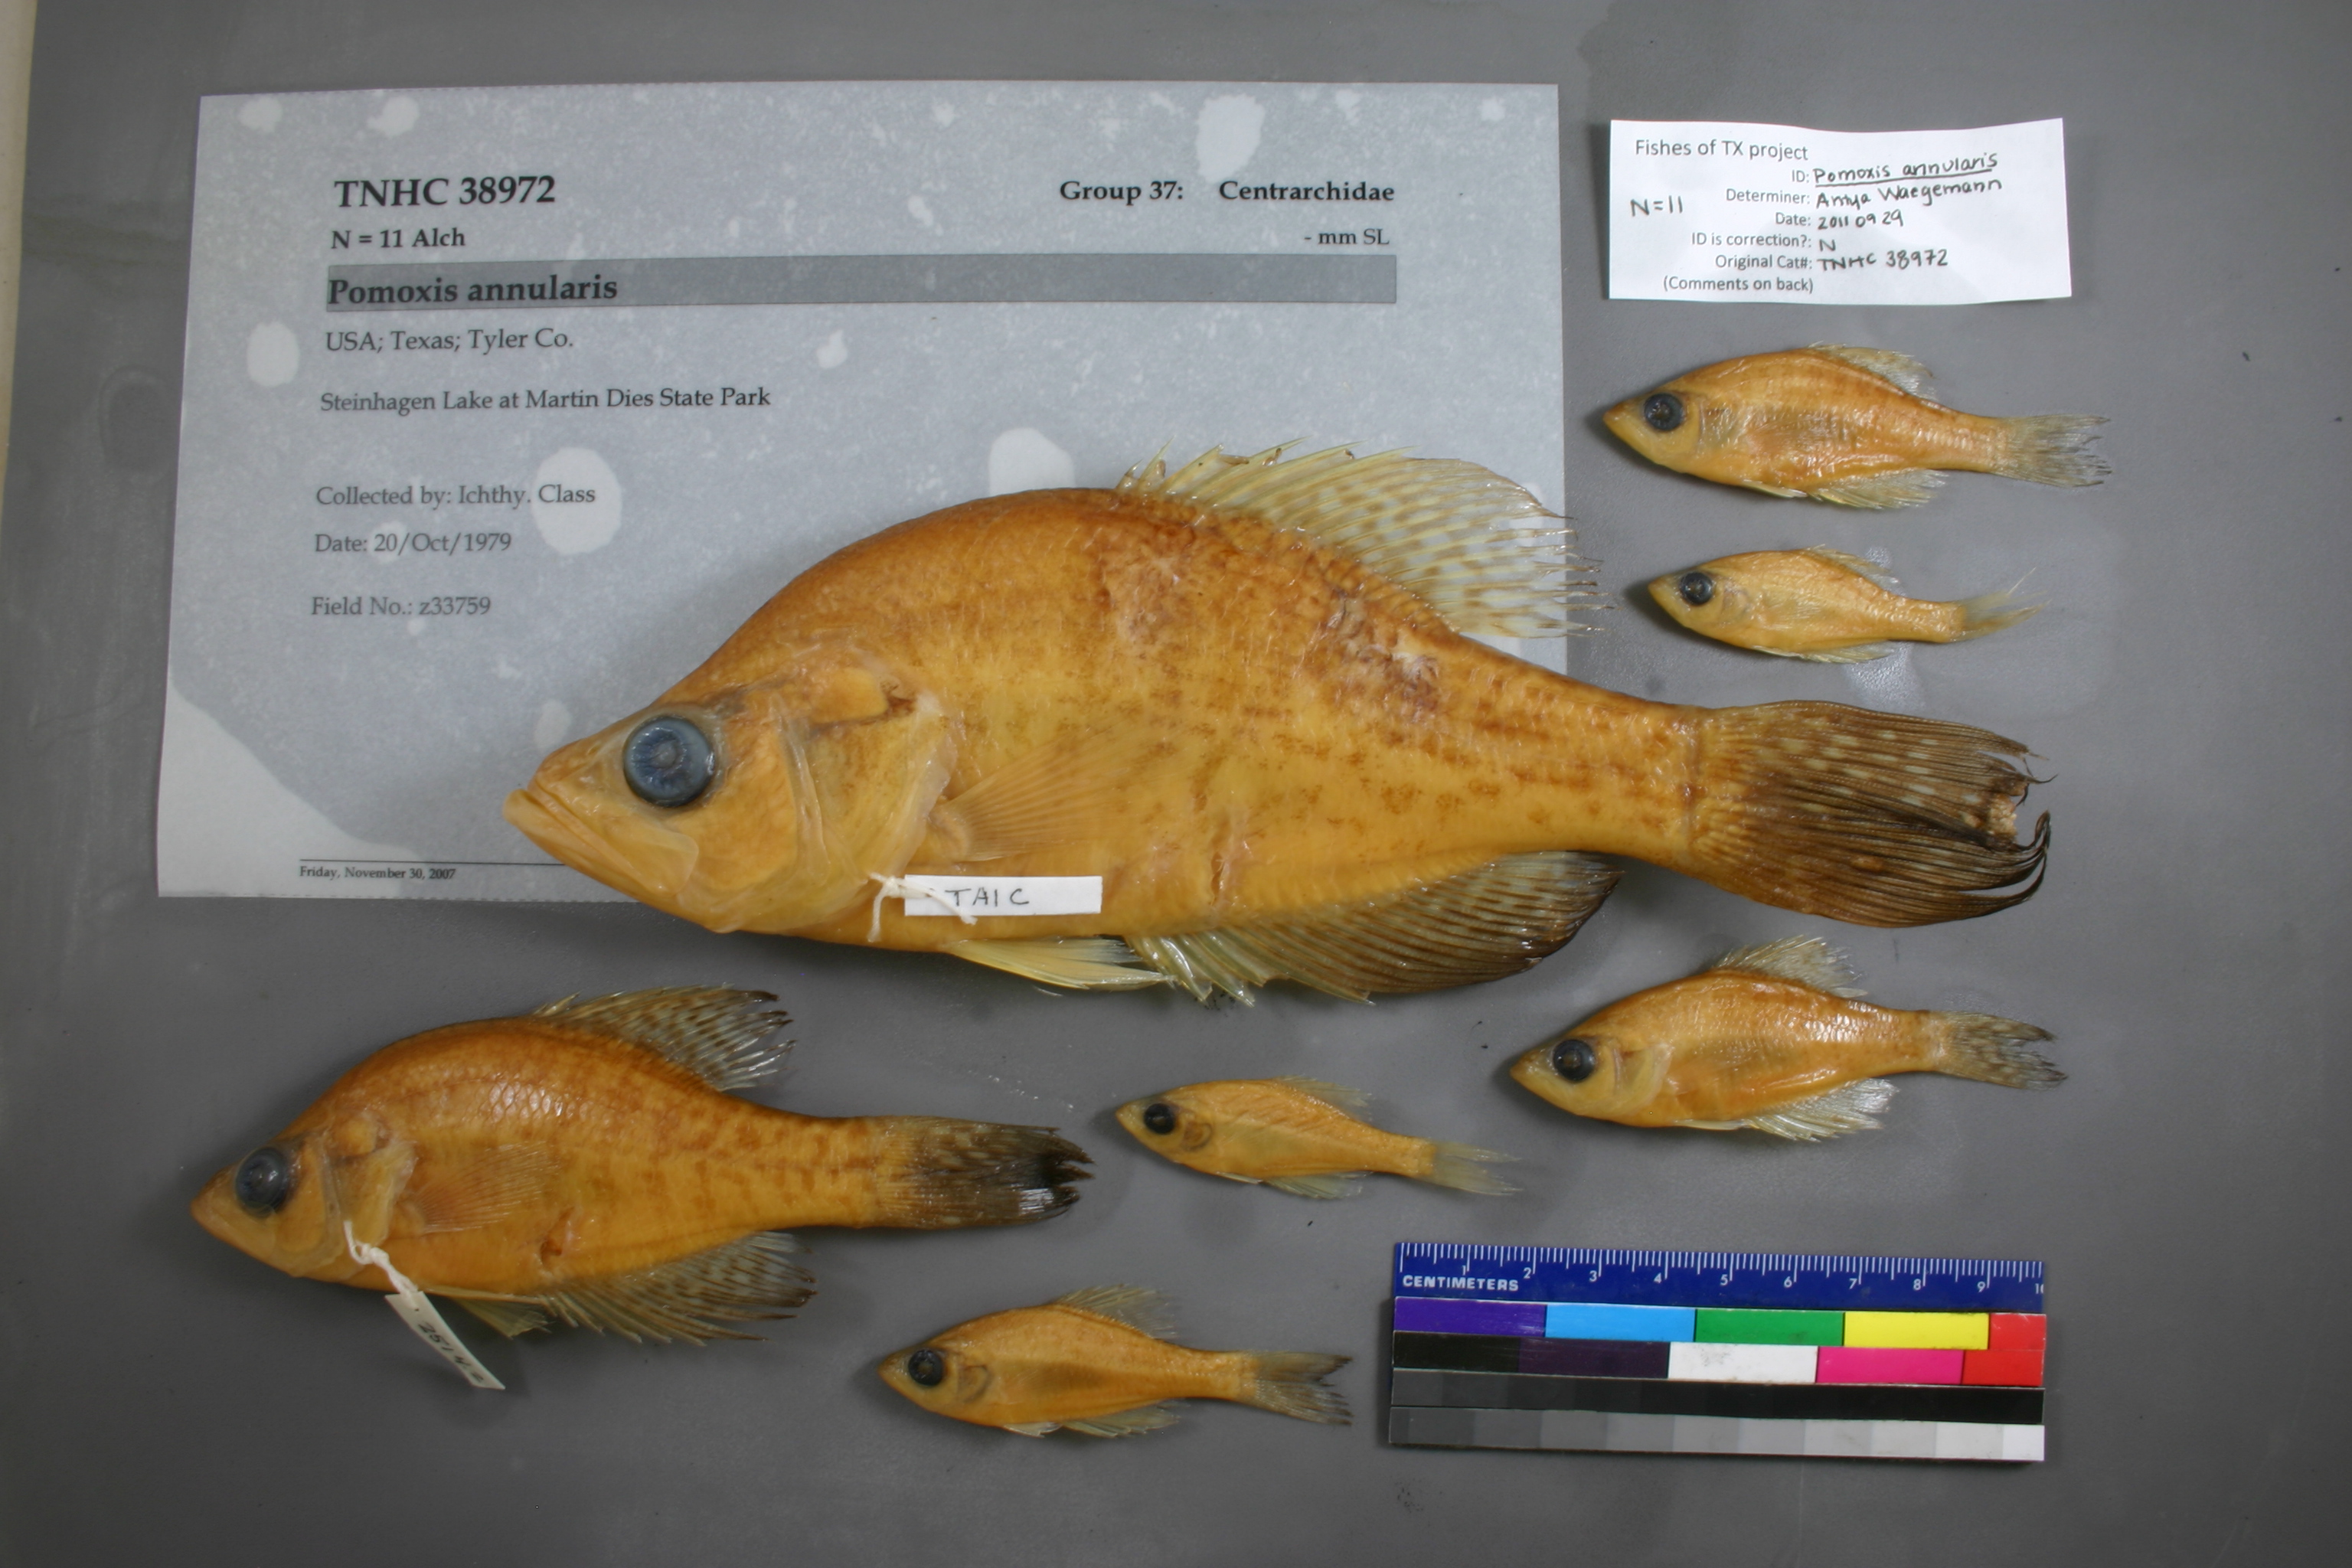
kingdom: Animalia
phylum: Chordata
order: Perciformes
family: Centrarchidae
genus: Pomoxis
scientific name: Pomoxis annularis
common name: White crappie
